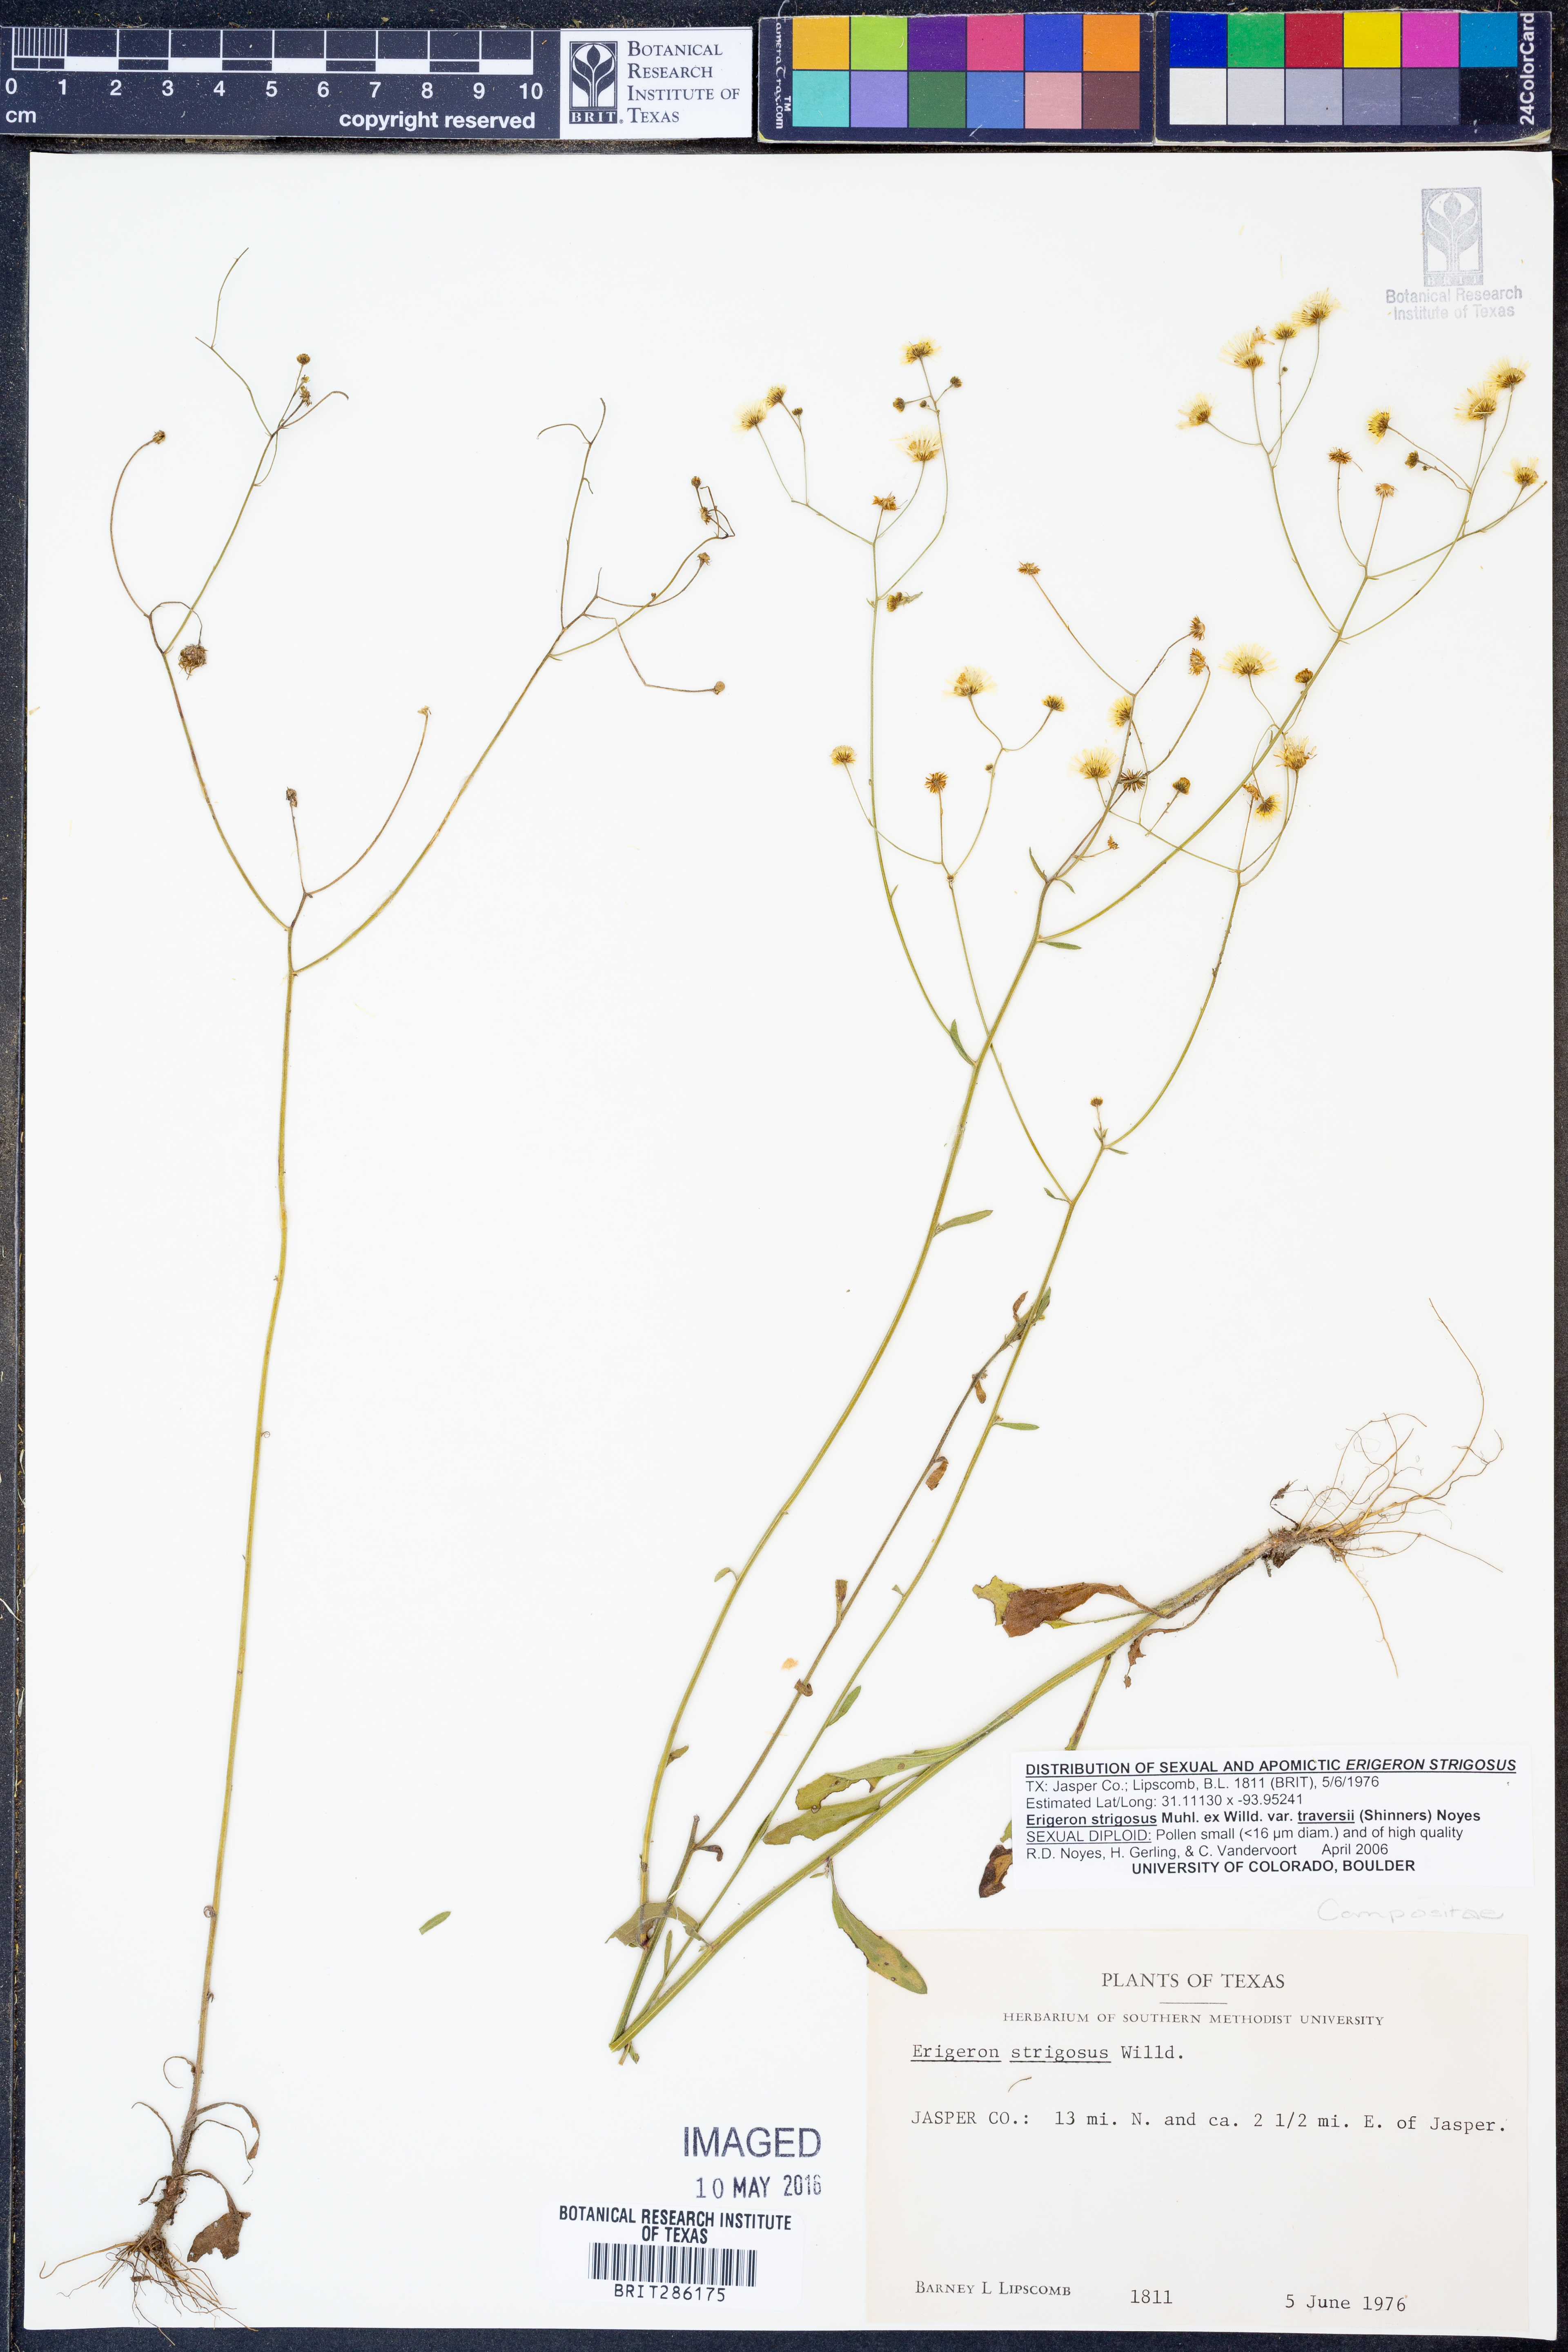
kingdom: Plantae
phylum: Tracheophyta
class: Magnoliopsida
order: Asterales
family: Asteraceae
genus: Erigeron
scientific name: Erigeron annuus
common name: Tall fleabane
